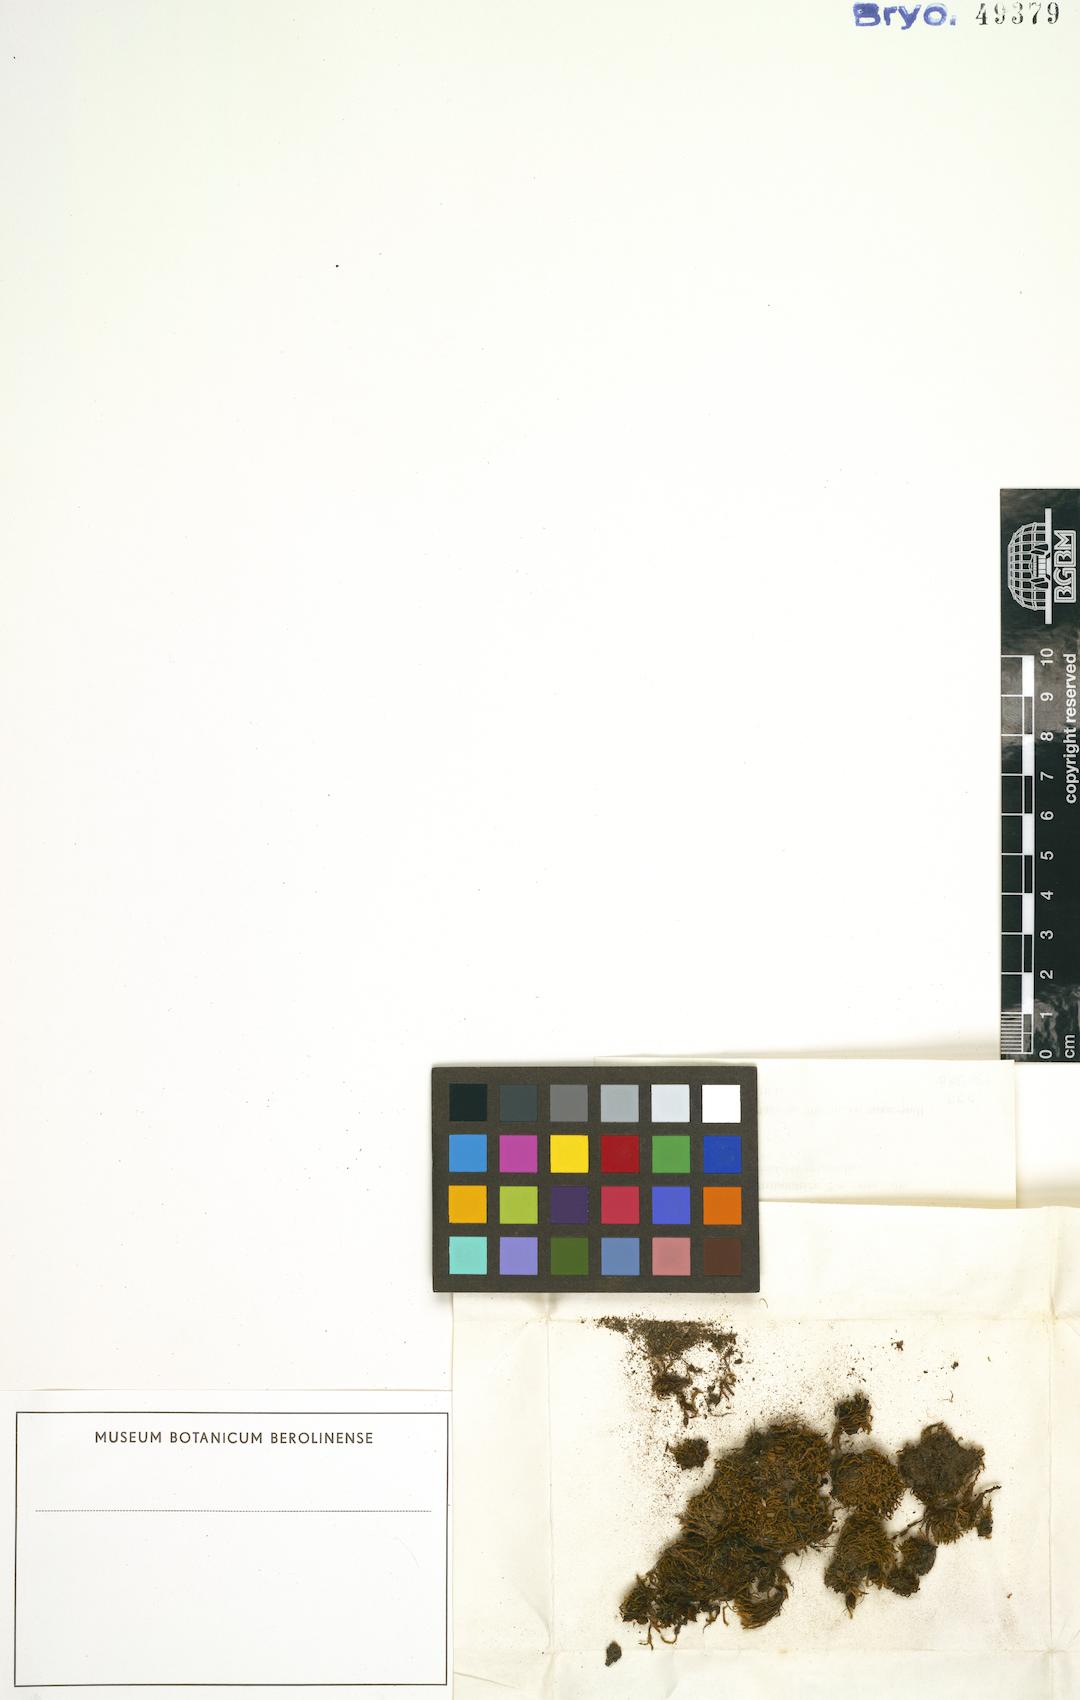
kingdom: Plantae
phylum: Bryophyta
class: Bryopsida
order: Pottiales
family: Pottiaceae
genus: Vinealobryum
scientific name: Vinealobryum vineale
